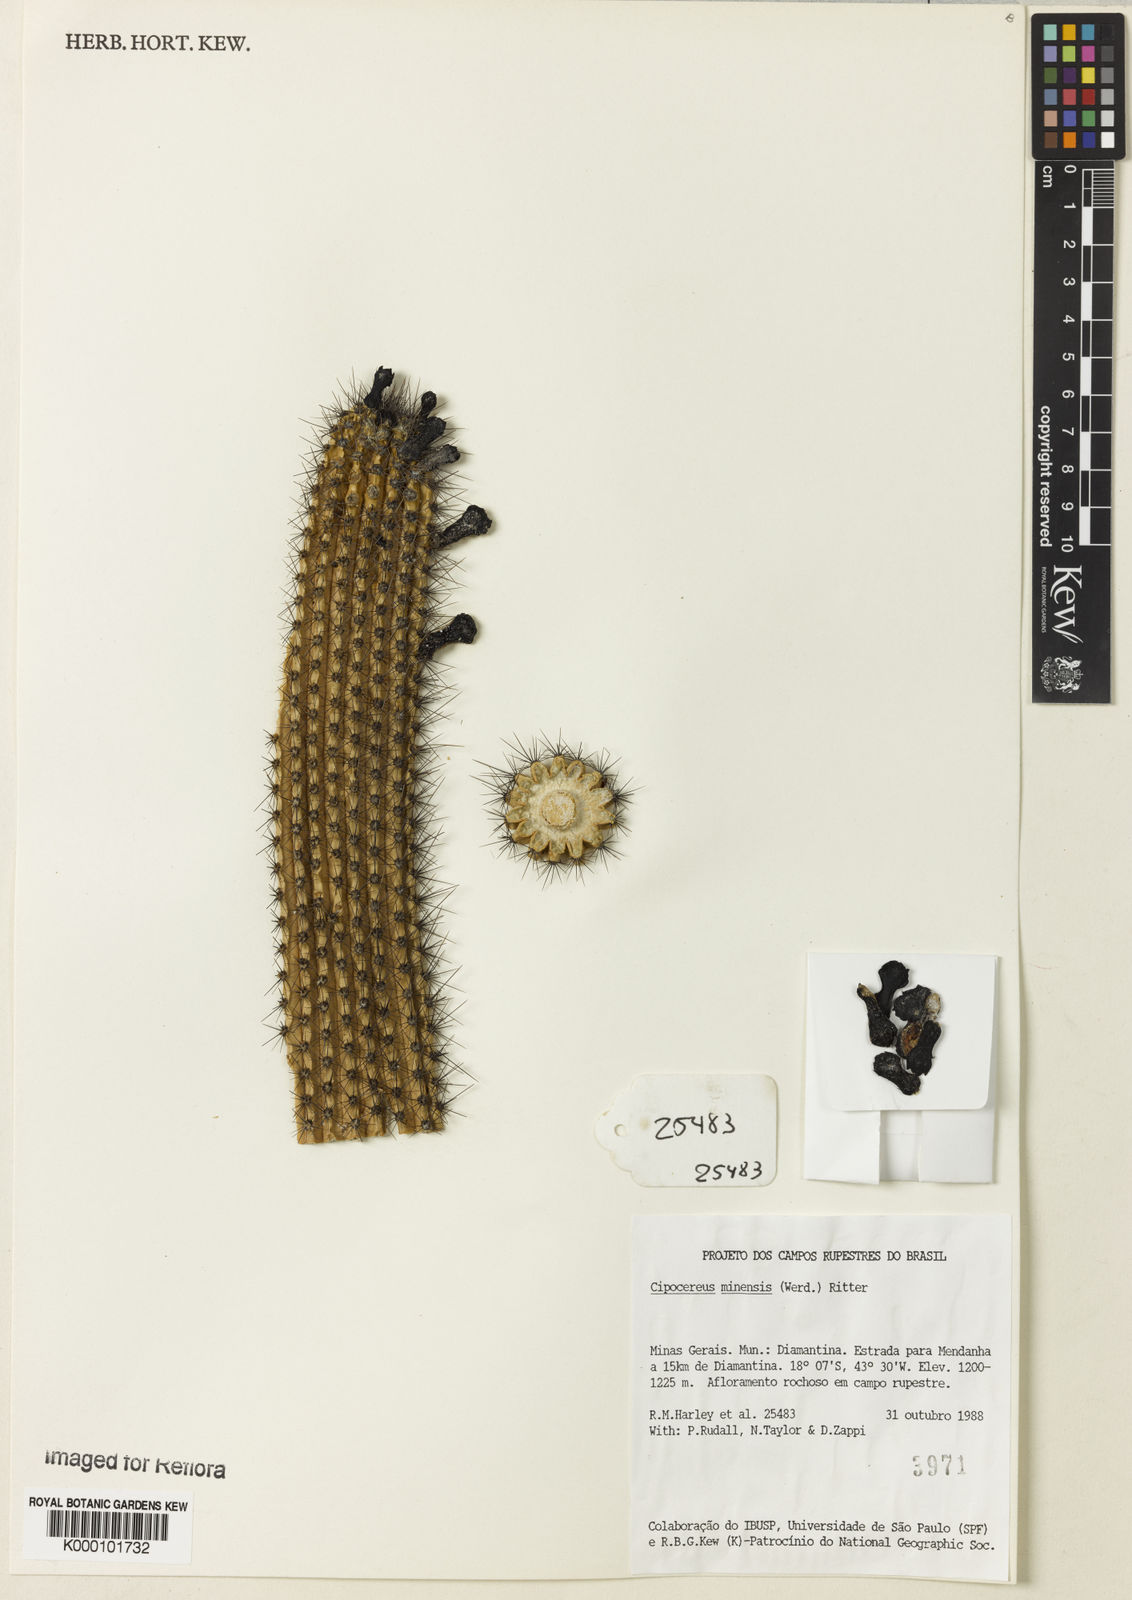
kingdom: Plantae
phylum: Tracheophyta
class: Magnoliopsida
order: Caryophyllales
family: Cactaceae
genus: Cipocereus
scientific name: Cipocereus minensis
